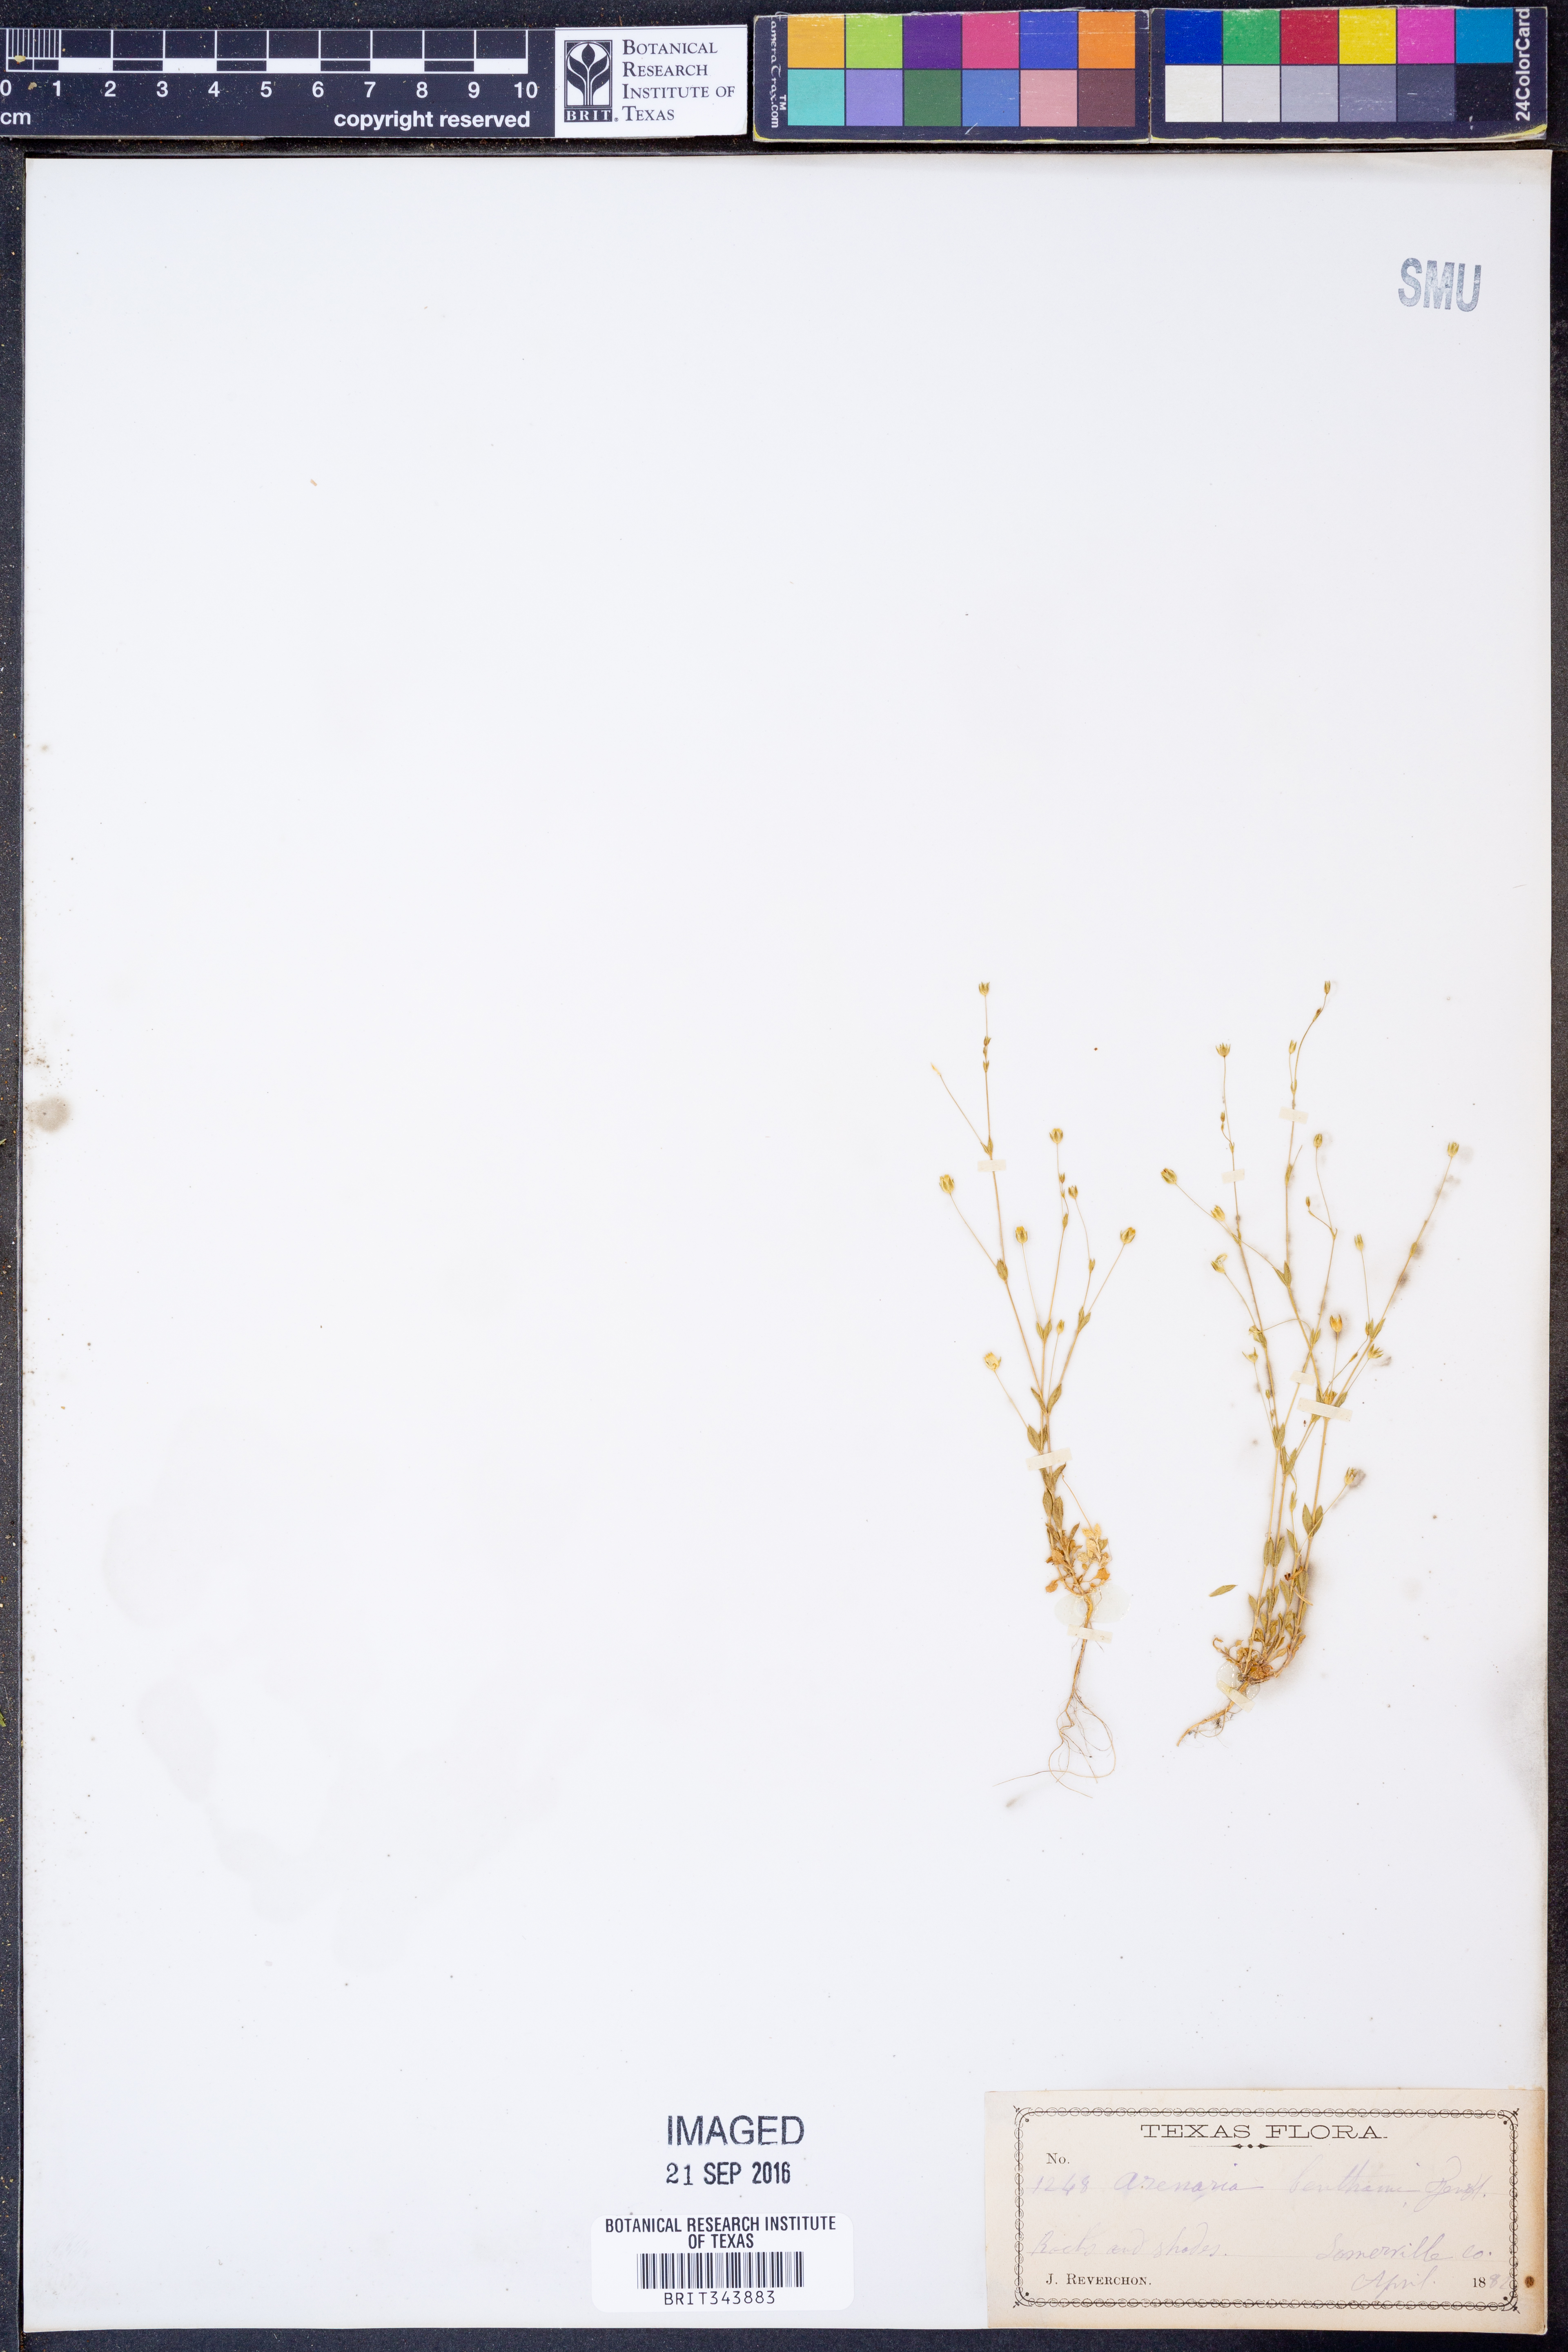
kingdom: Plantae
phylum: Tracheophyta
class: Magnoliopsida
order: Caryophyllales
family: Caryophyllaceae
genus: Arenaria
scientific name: Arenaria benthamii
